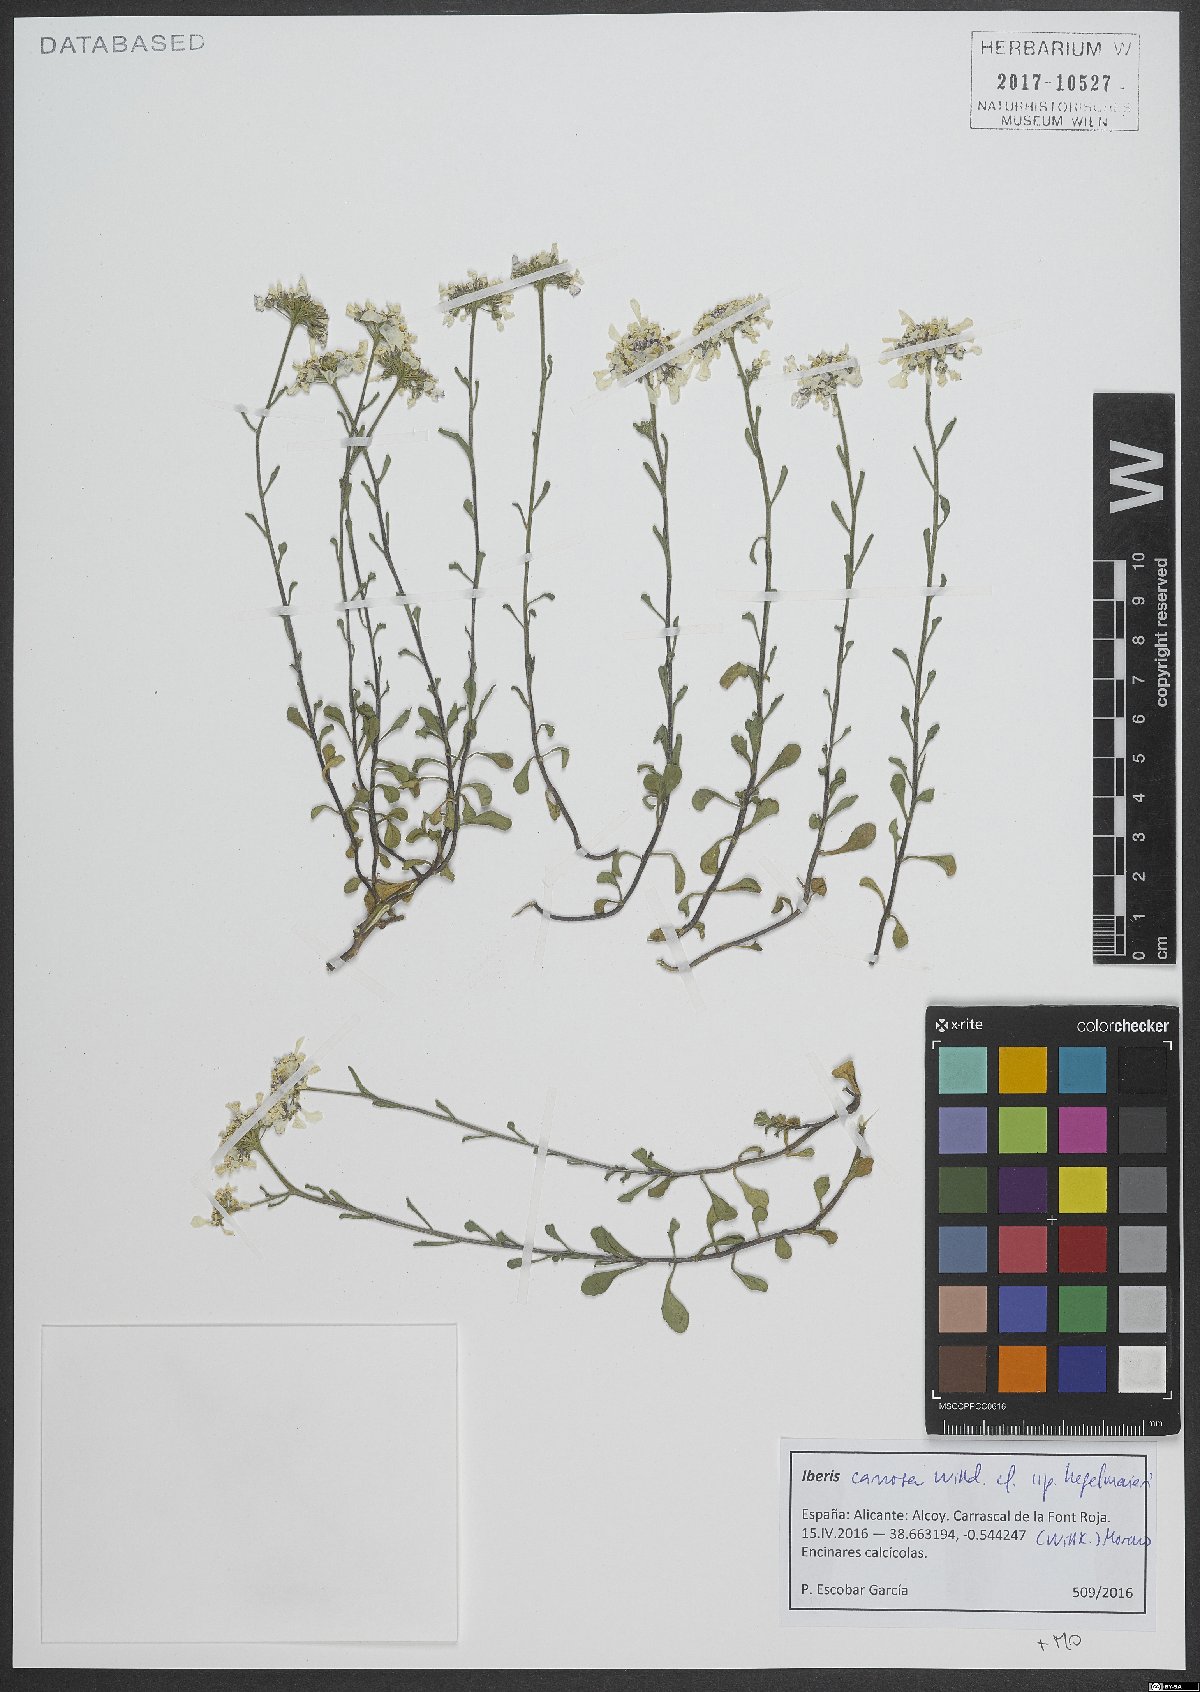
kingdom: Plantae
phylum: Tracheophyta
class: Magnoliopsida
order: Brassicales
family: Brassicaceae
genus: Iberis
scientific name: Iberis carnosa
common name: Pruit's candytuft
